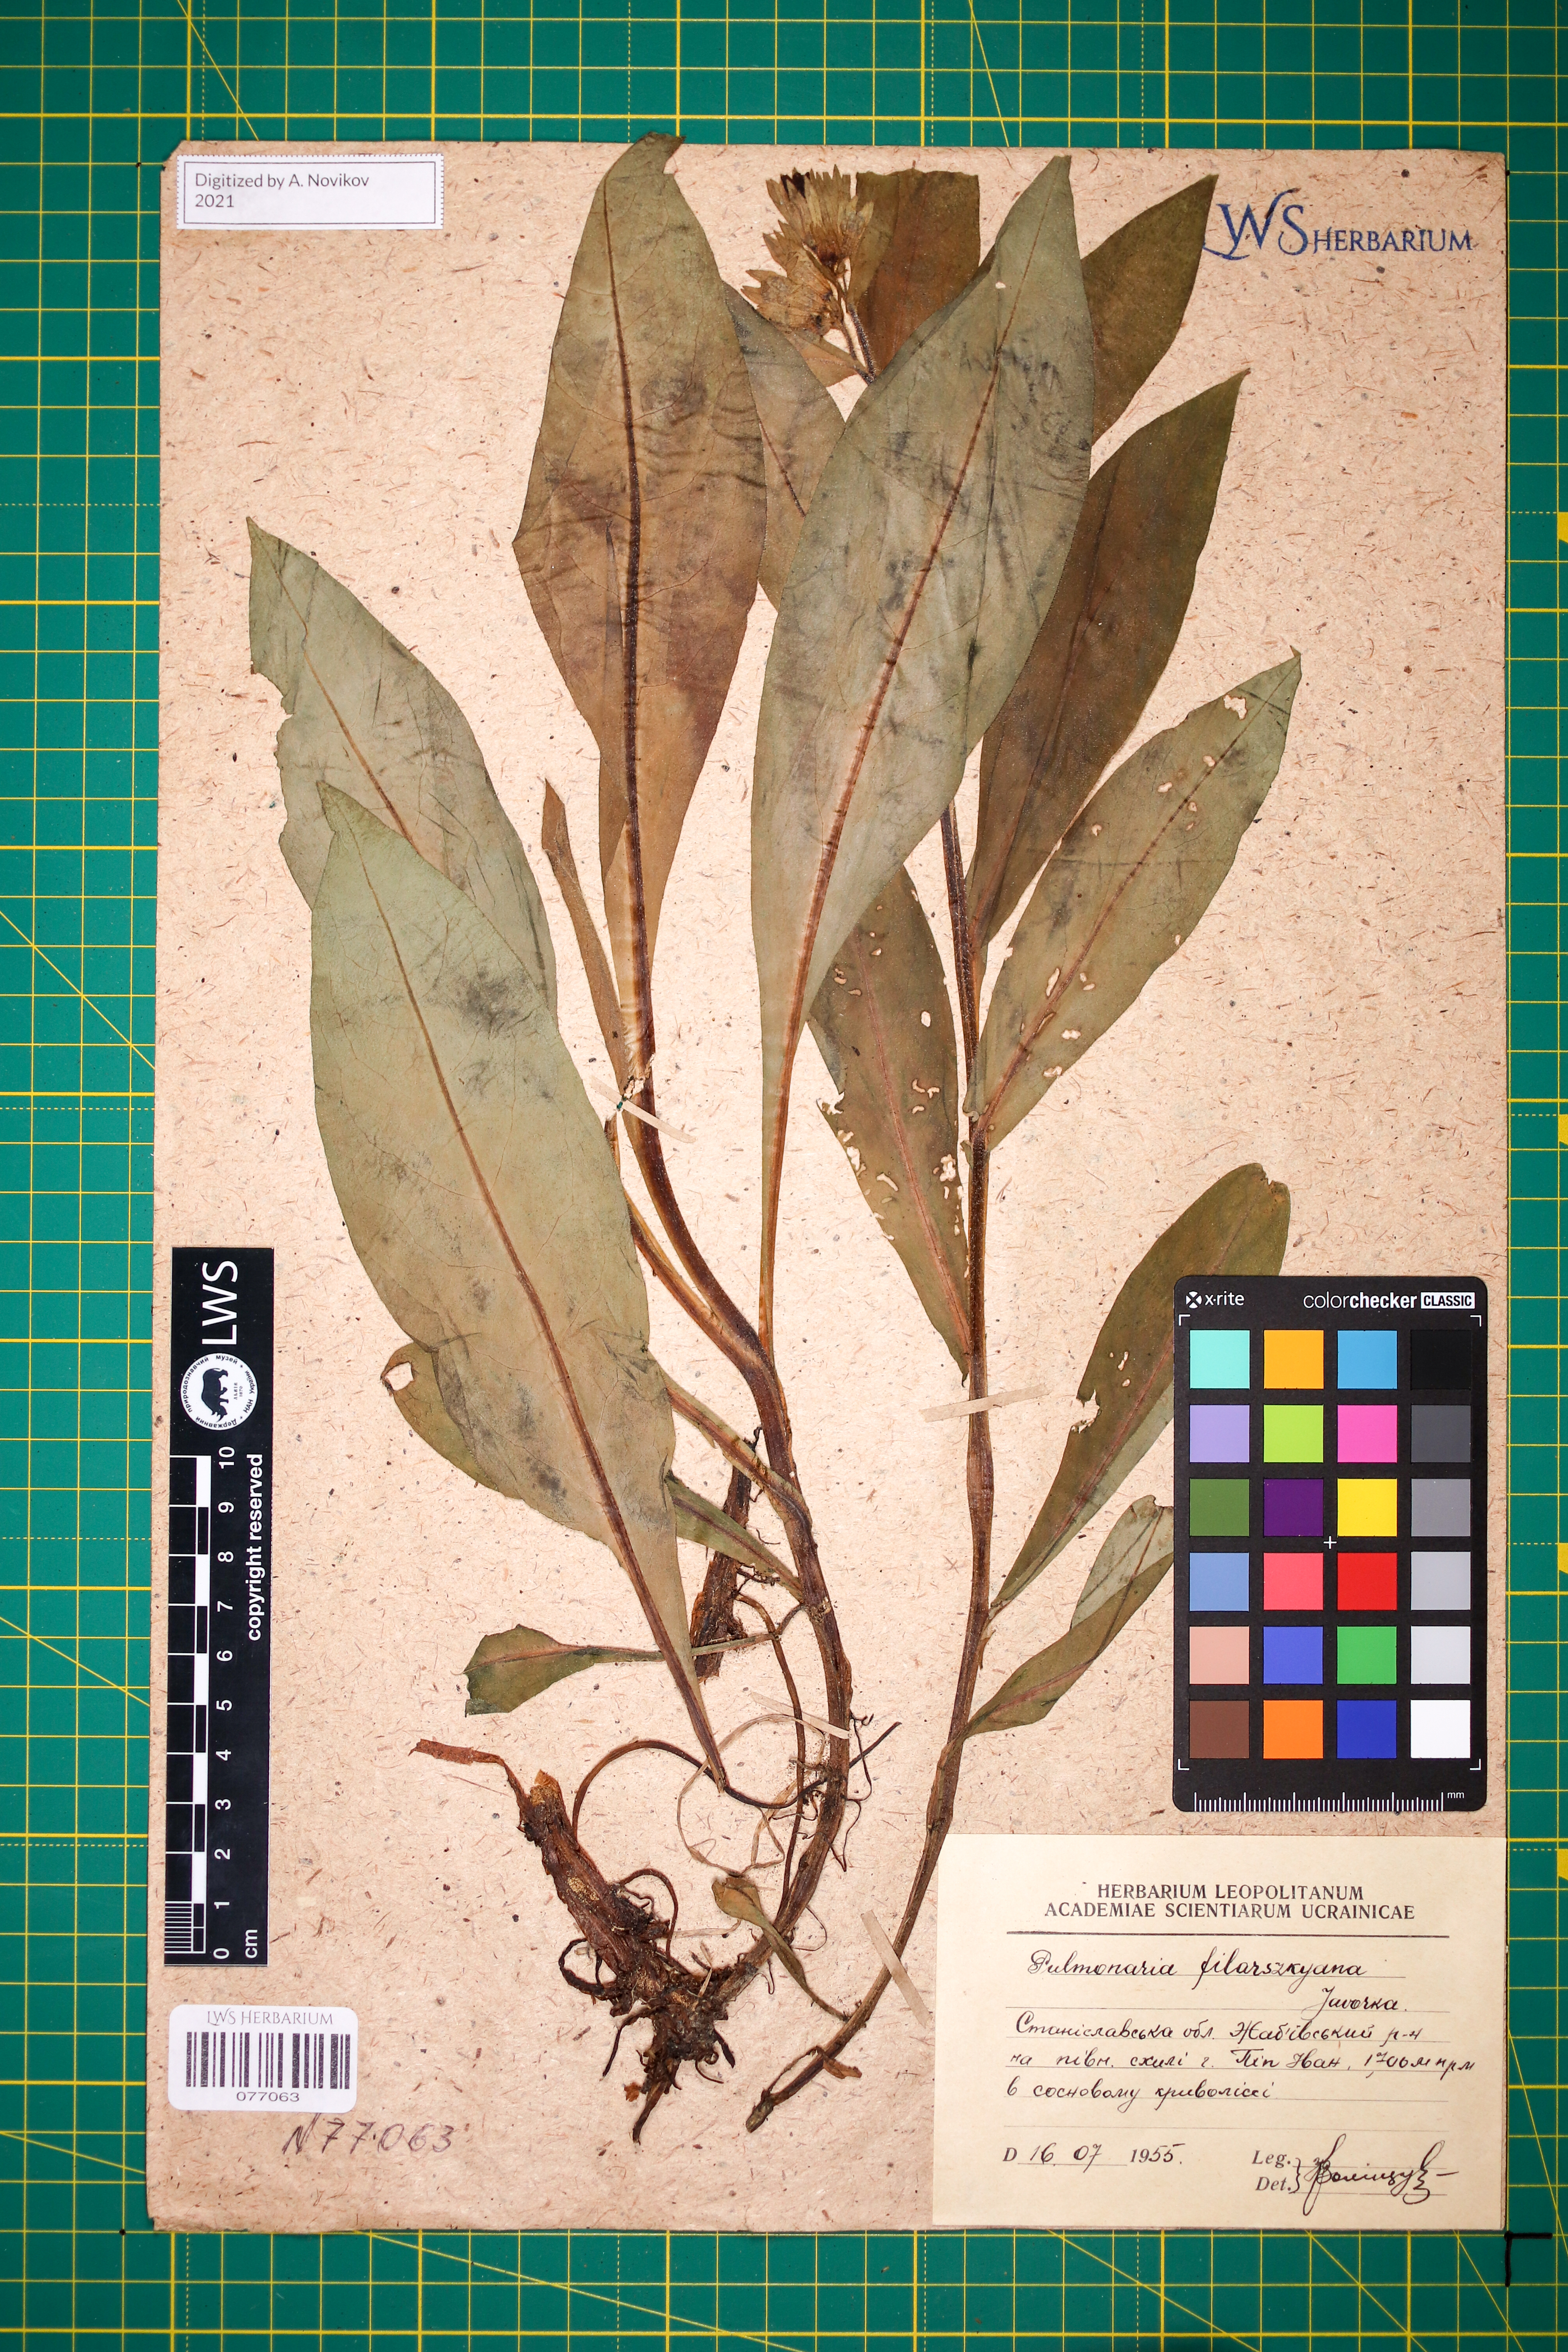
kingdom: Plantae
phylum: Tracheophyta
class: Magnoliopsida
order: Boraginales
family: Boraginaceae
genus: Pulmonaria
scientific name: Pulmonaria filarszkyana
